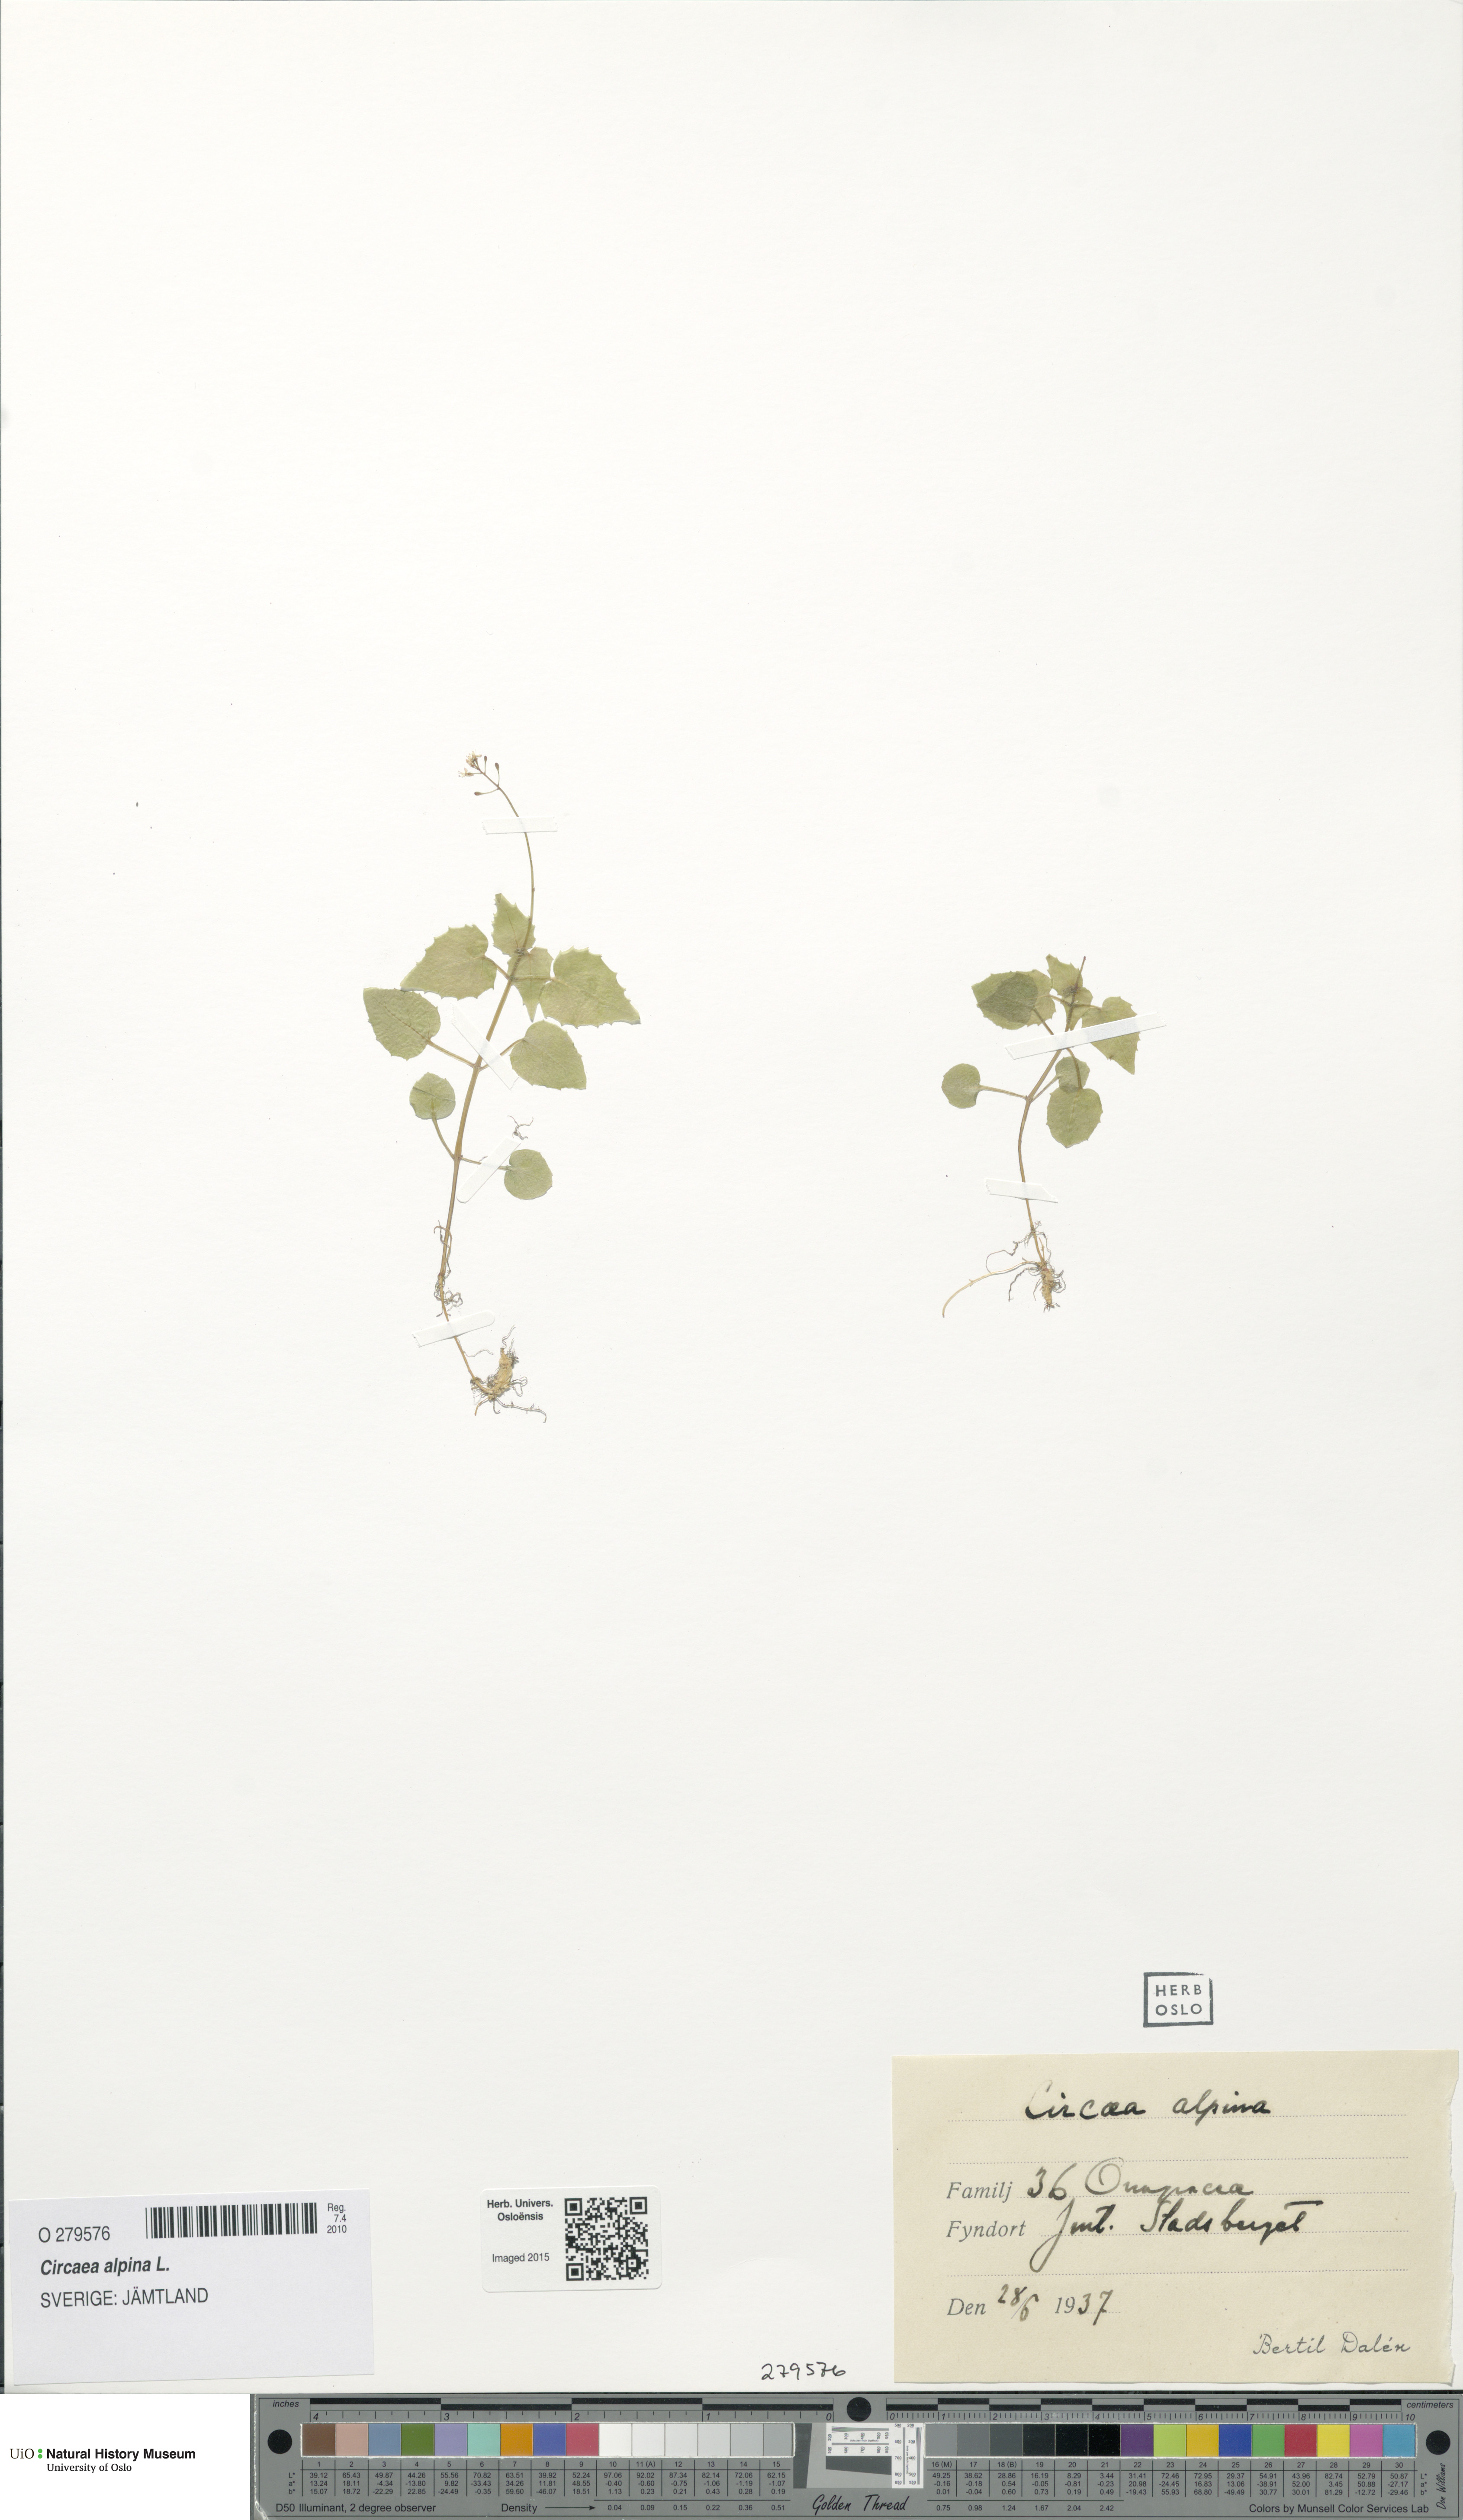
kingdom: Plantae
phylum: Tracheophyta
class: Magnoliopsida
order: Myrtales
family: Onagraceae
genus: Circaea
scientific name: Circaea alpina
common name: Alpine enchanter's-nightshade
